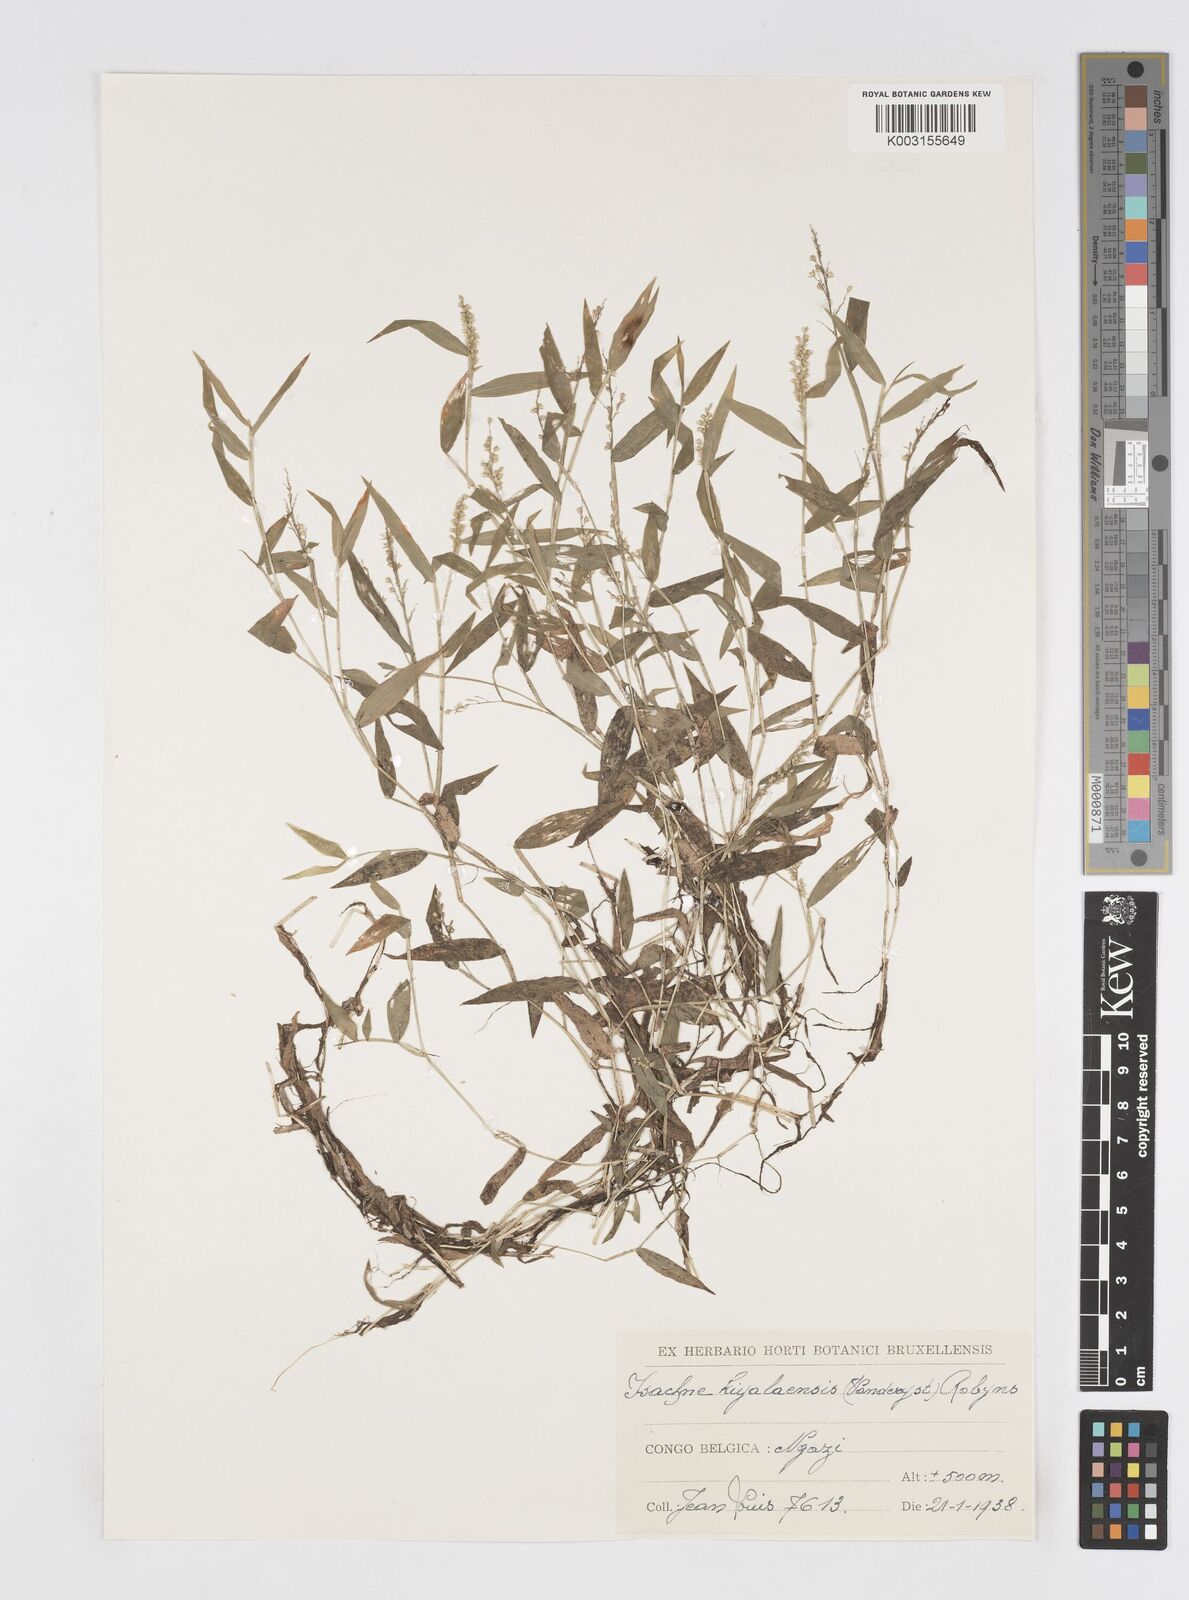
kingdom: Plantae
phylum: Tracheophyta
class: Liliopsida
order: Poales
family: Poaceae
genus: Isachne
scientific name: Isachne kiyalaensis
